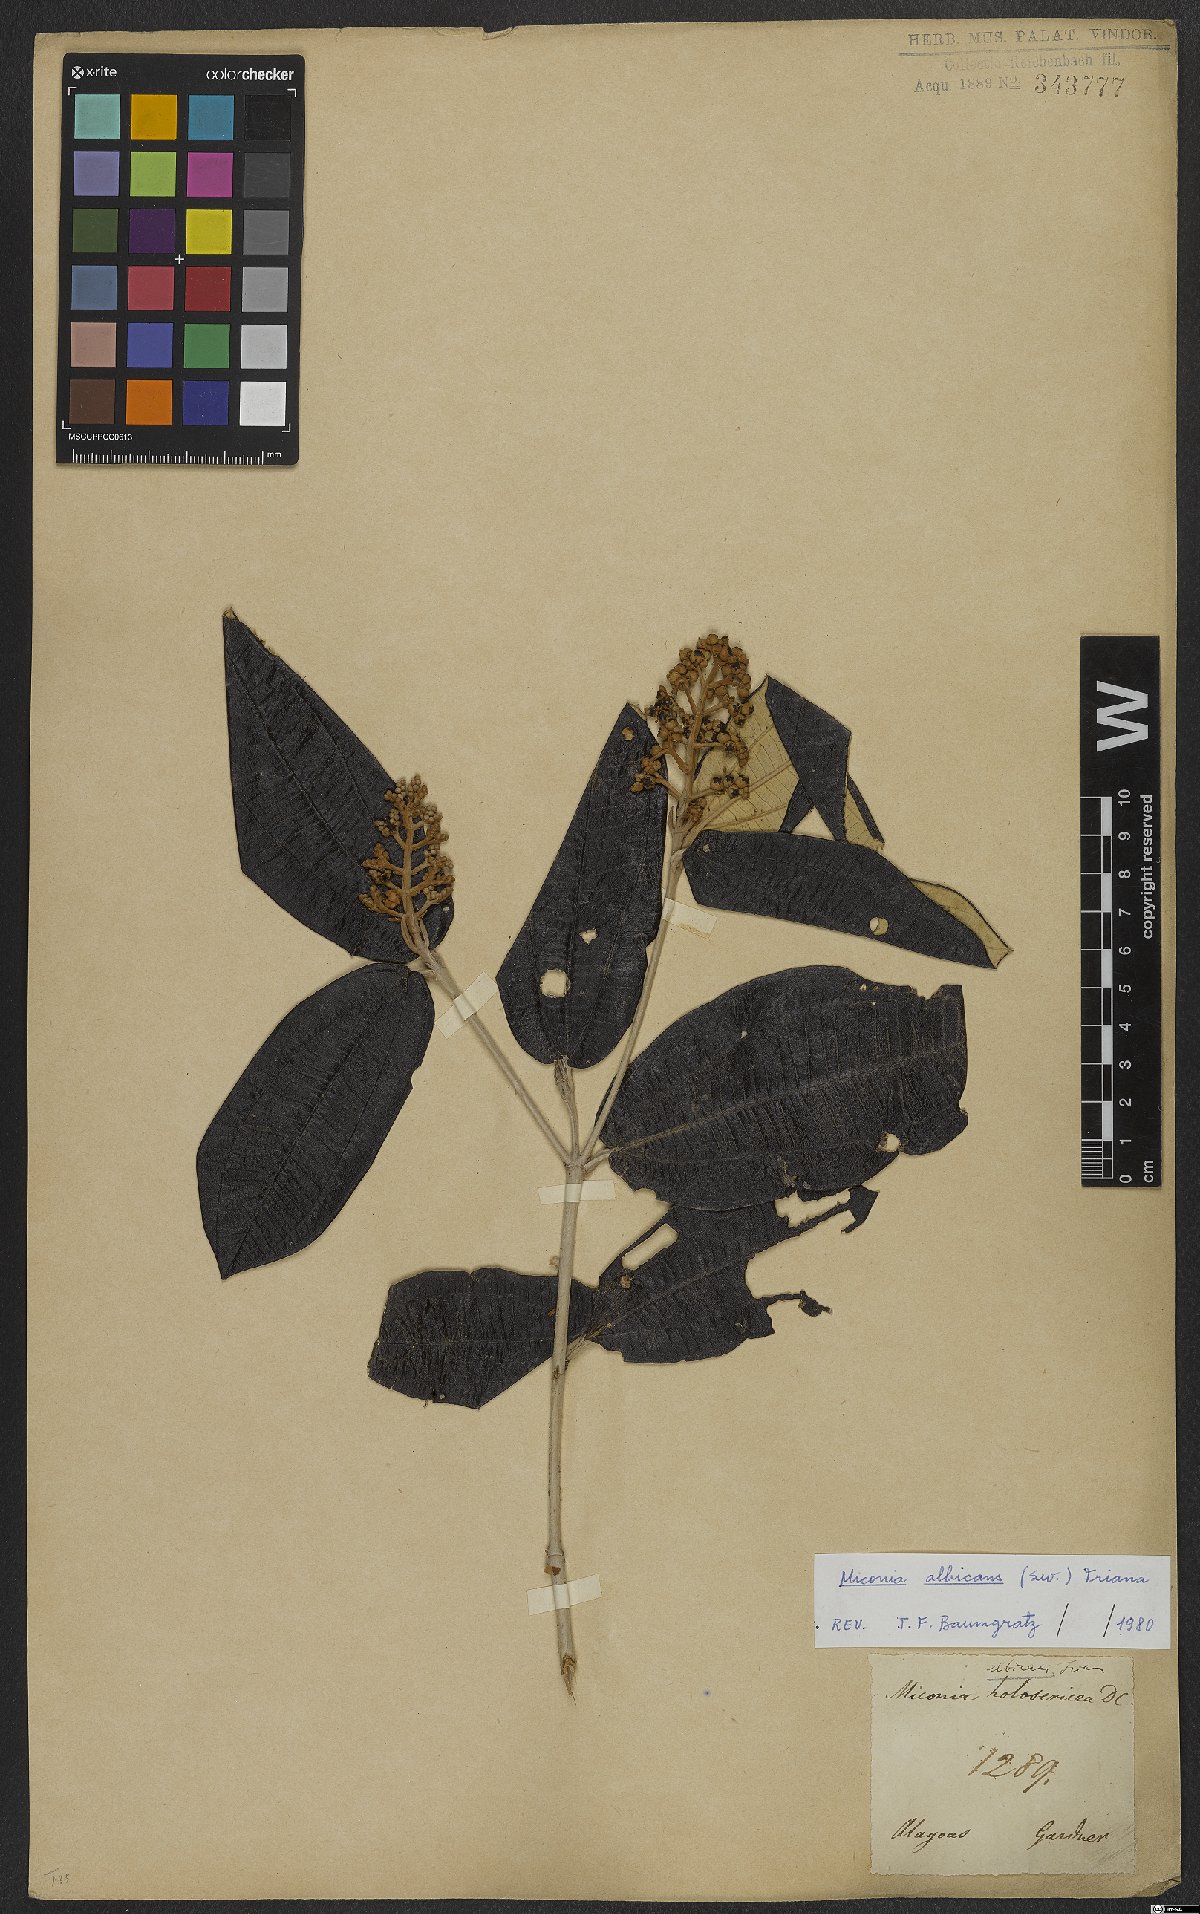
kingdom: Plantae
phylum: Tracheophyta
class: Magnoliopsida
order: Myrtales
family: Melastomataceae
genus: Miconia
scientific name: Miconia albicans
